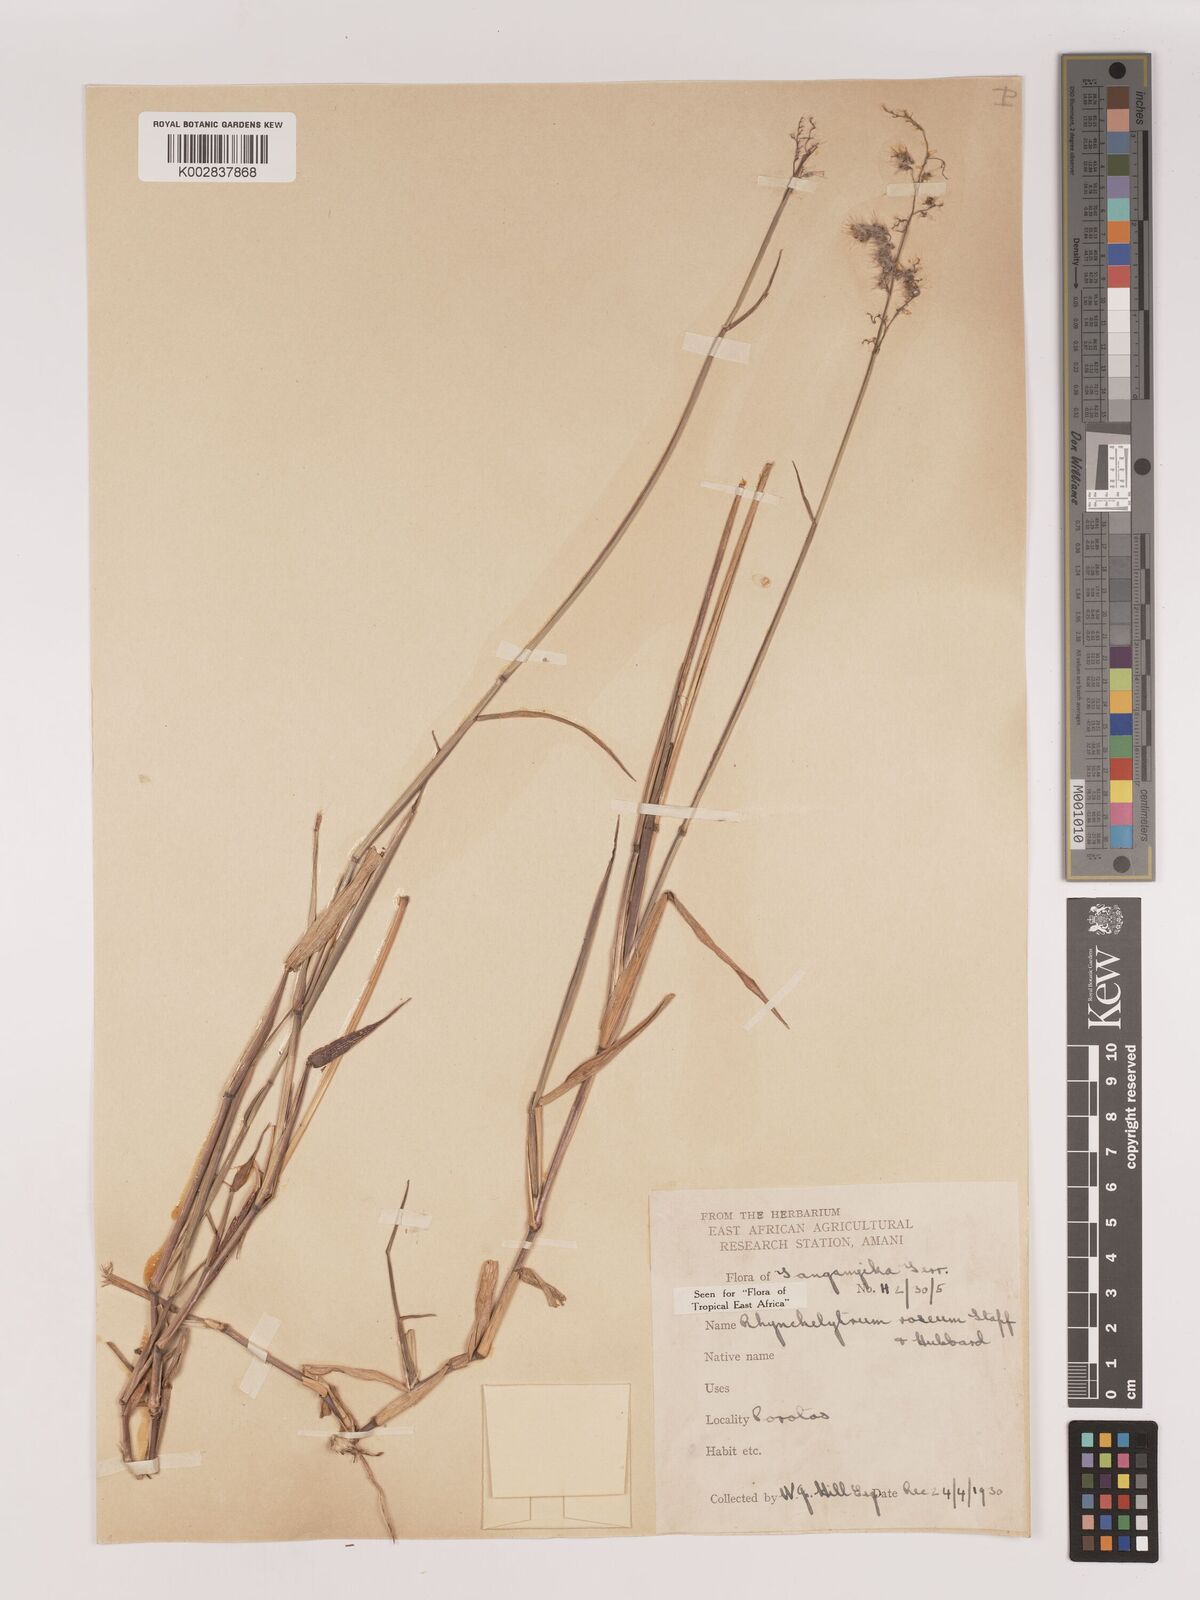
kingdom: Plantae
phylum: Tracheophyta
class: Liliopsida
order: Poales
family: Poaceae
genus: Melinis
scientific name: Melinis repens
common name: Rose natal grass
